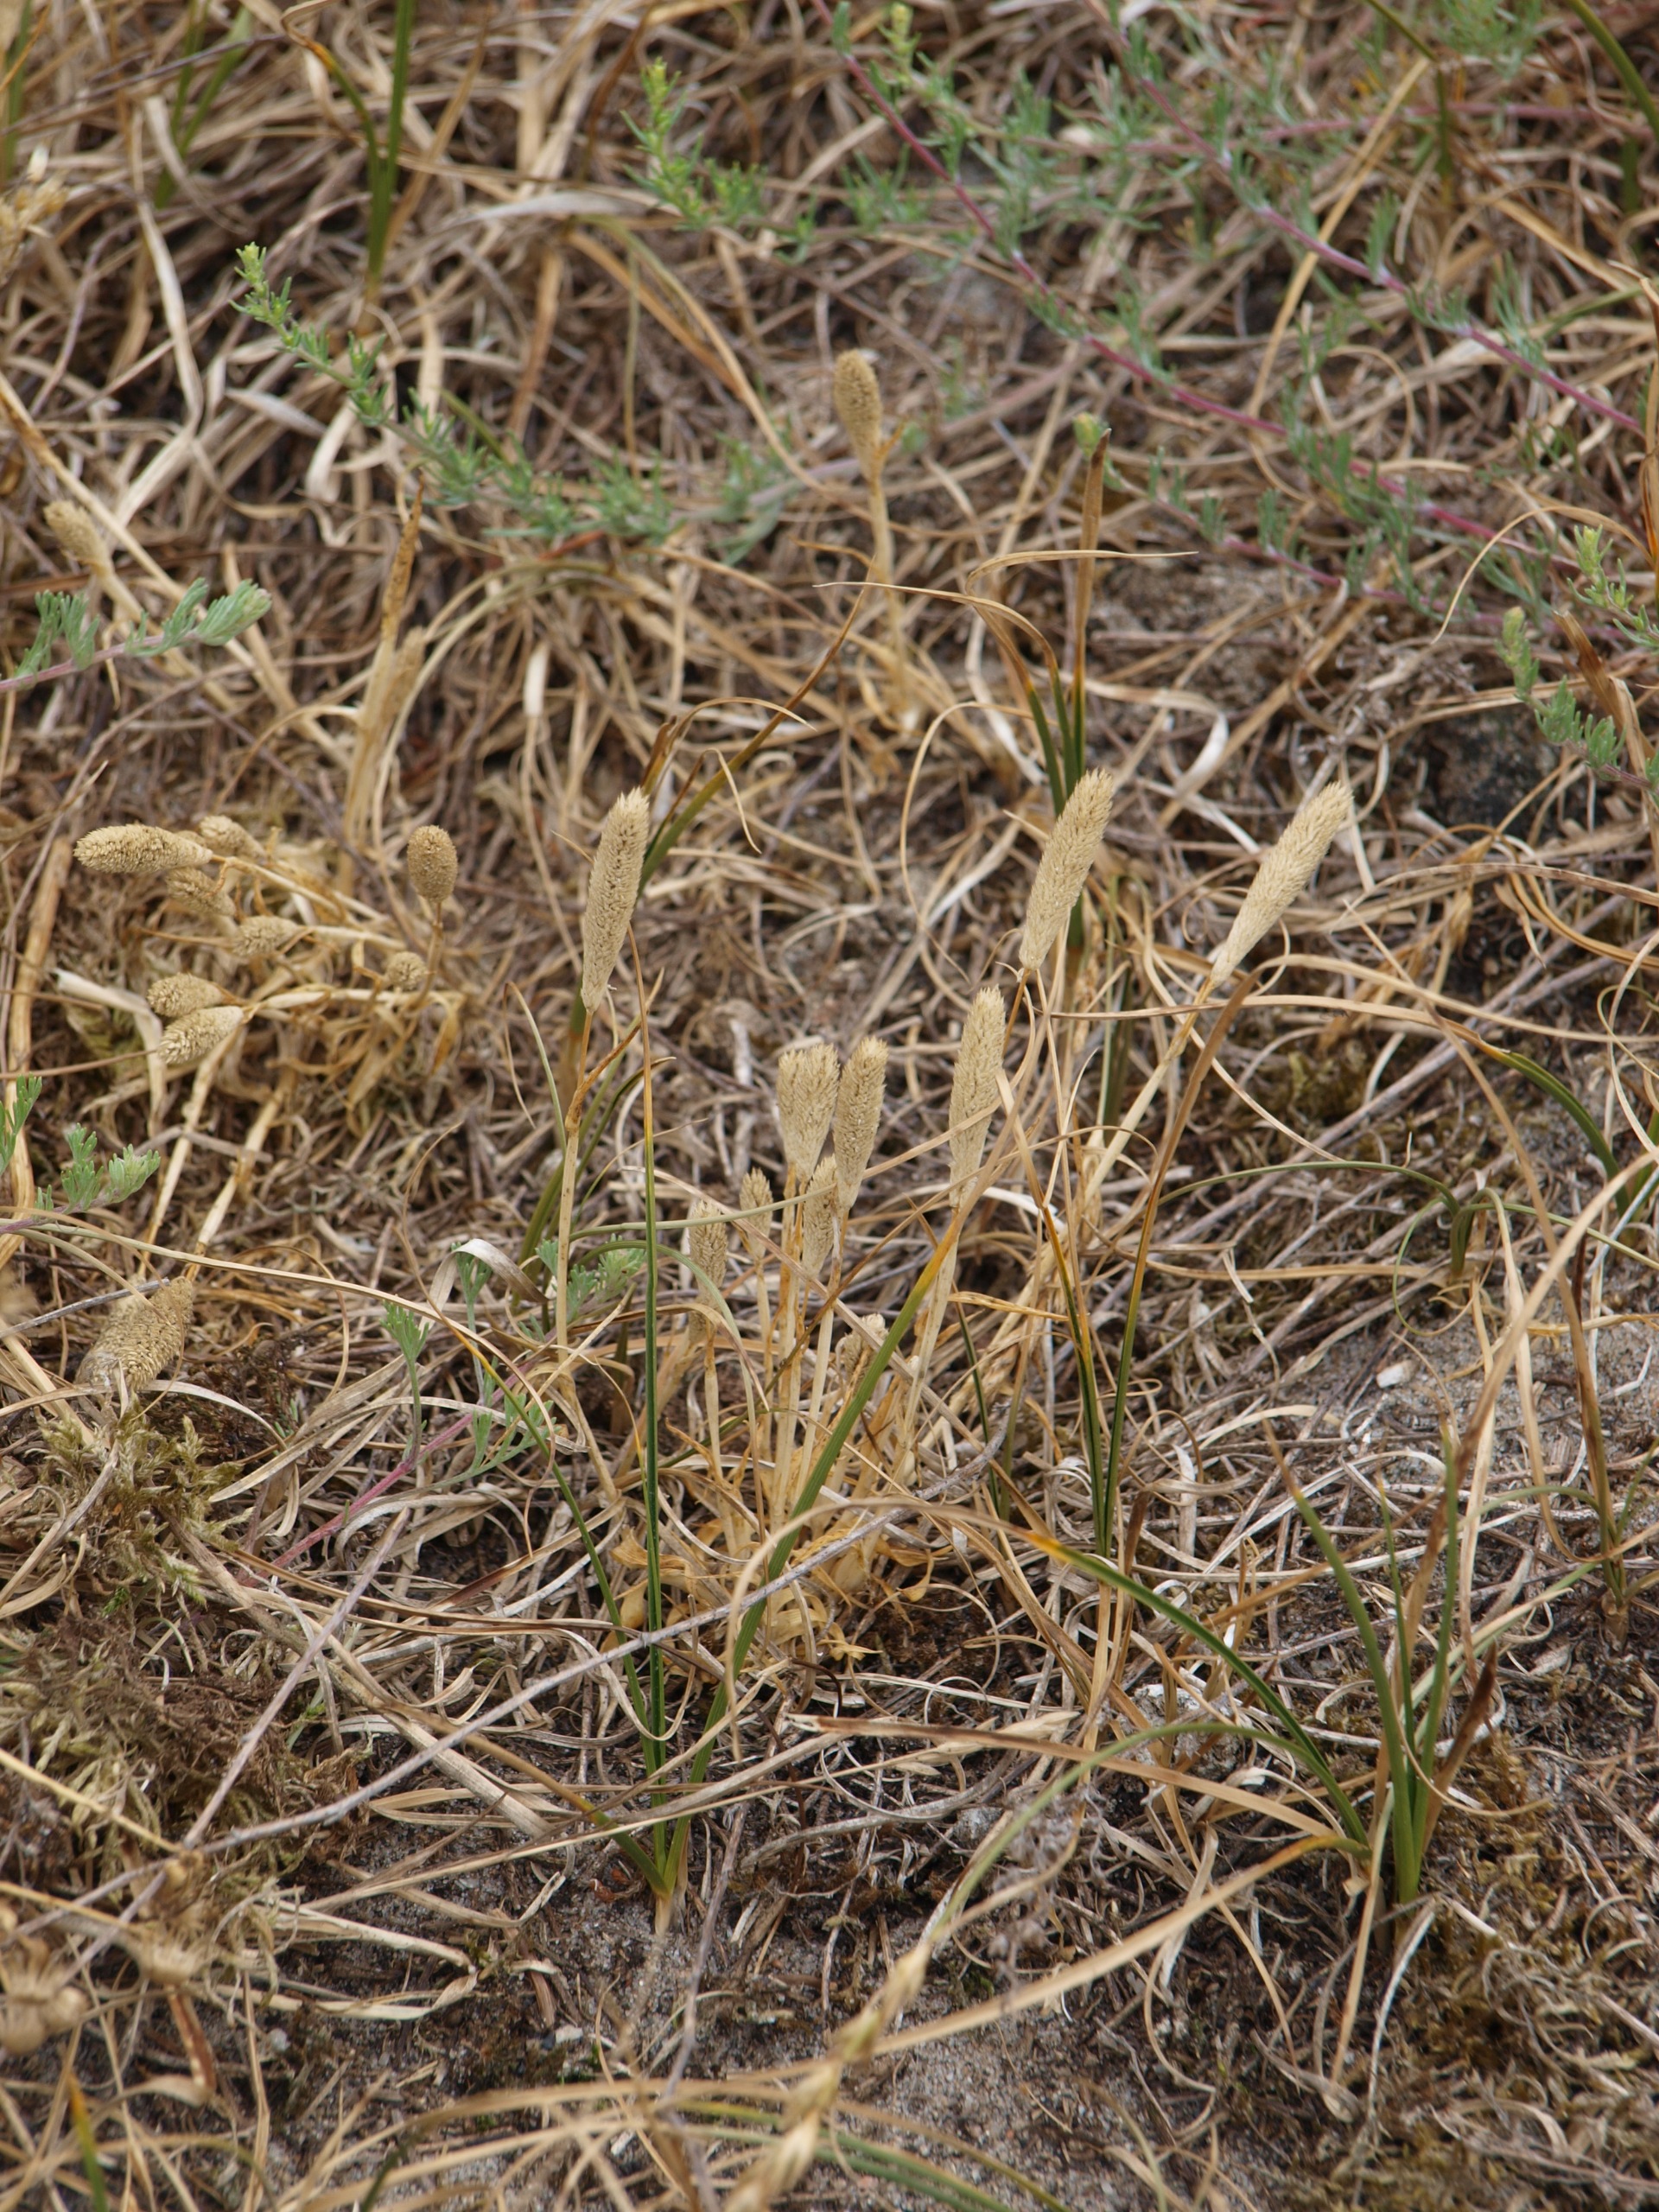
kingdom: Plantae
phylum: Tracheophyta
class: Liliopsida
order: Poales
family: Poaceae
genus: Phleum
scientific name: Phleum arenarium
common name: Sand-rottehale
